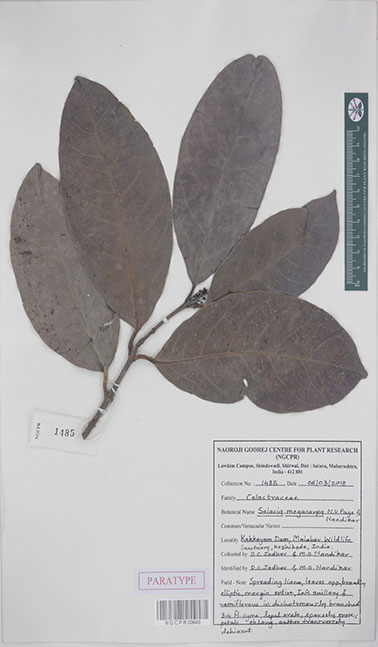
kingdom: Plantae
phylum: Tracheophyta
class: Magnoliopsida
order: Celastrales
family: Celastraceae
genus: Salacia
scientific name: Salacia megacarpa
